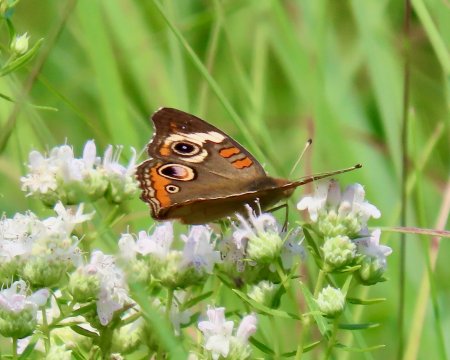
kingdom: Animalia
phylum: Arthropoda
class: Insecta
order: Lepidoptera
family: Nymphalidae
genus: Junonia
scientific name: Junonia coenia
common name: Common Buckeye
